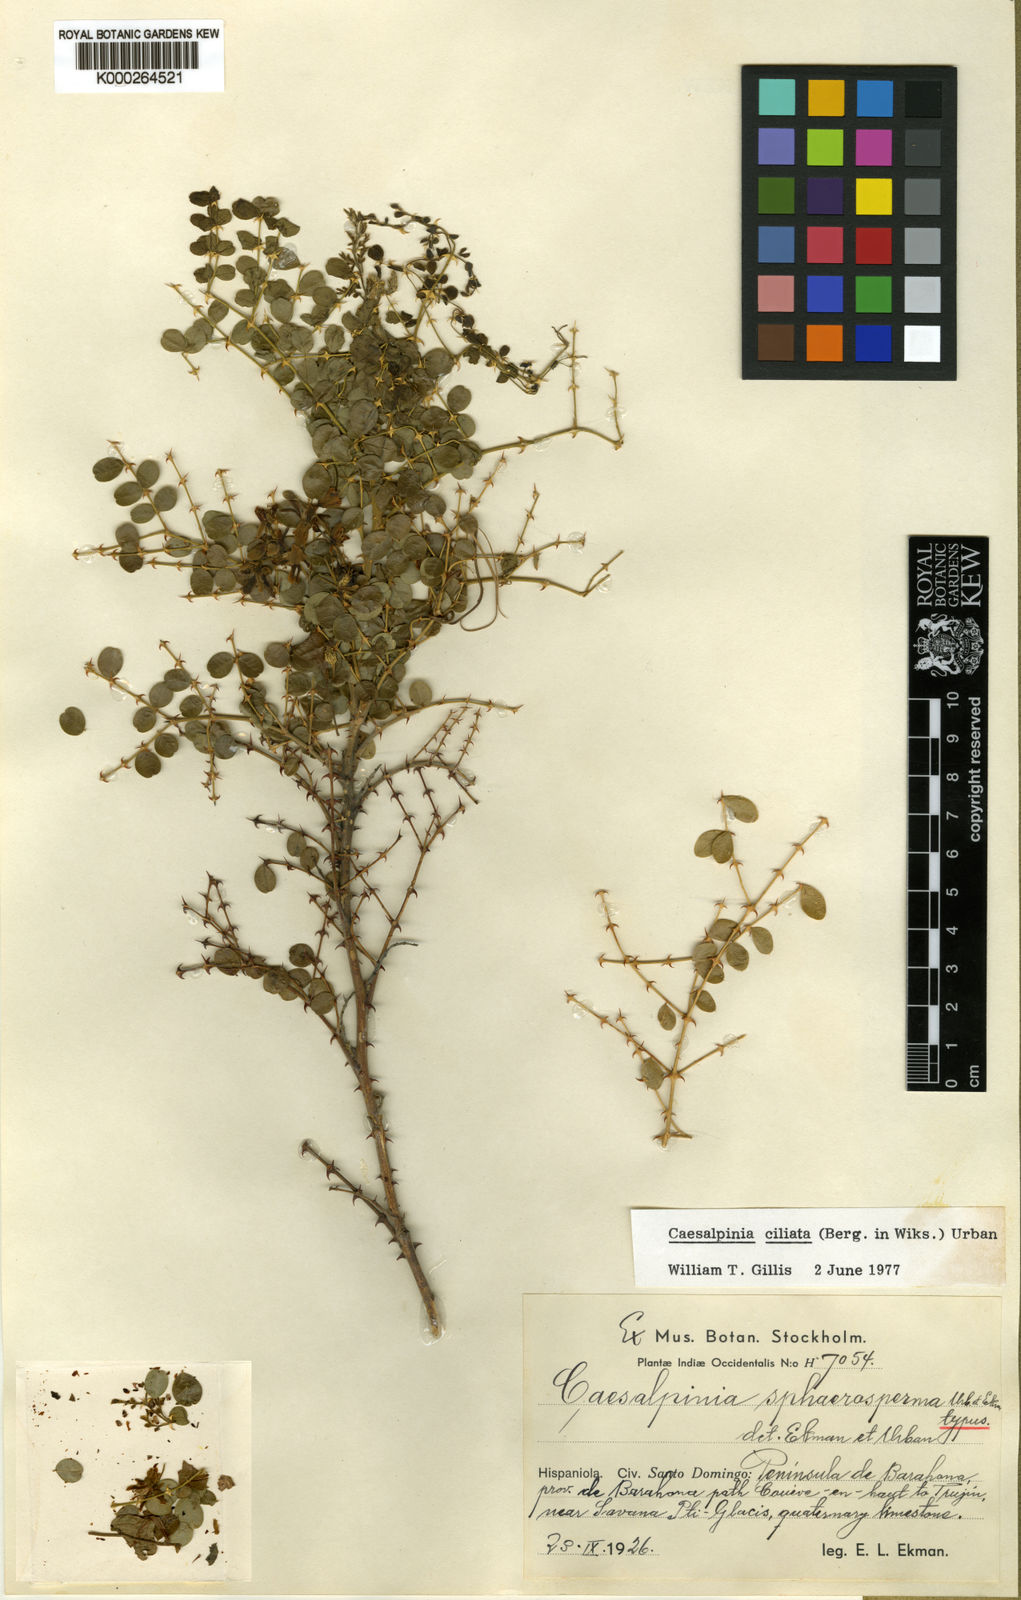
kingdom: Plantae
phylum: Tracheophyta
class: Magnoliopsida
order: Fabales
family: Fabaceae
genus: Guilandina
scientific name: Guilandina ciliata
